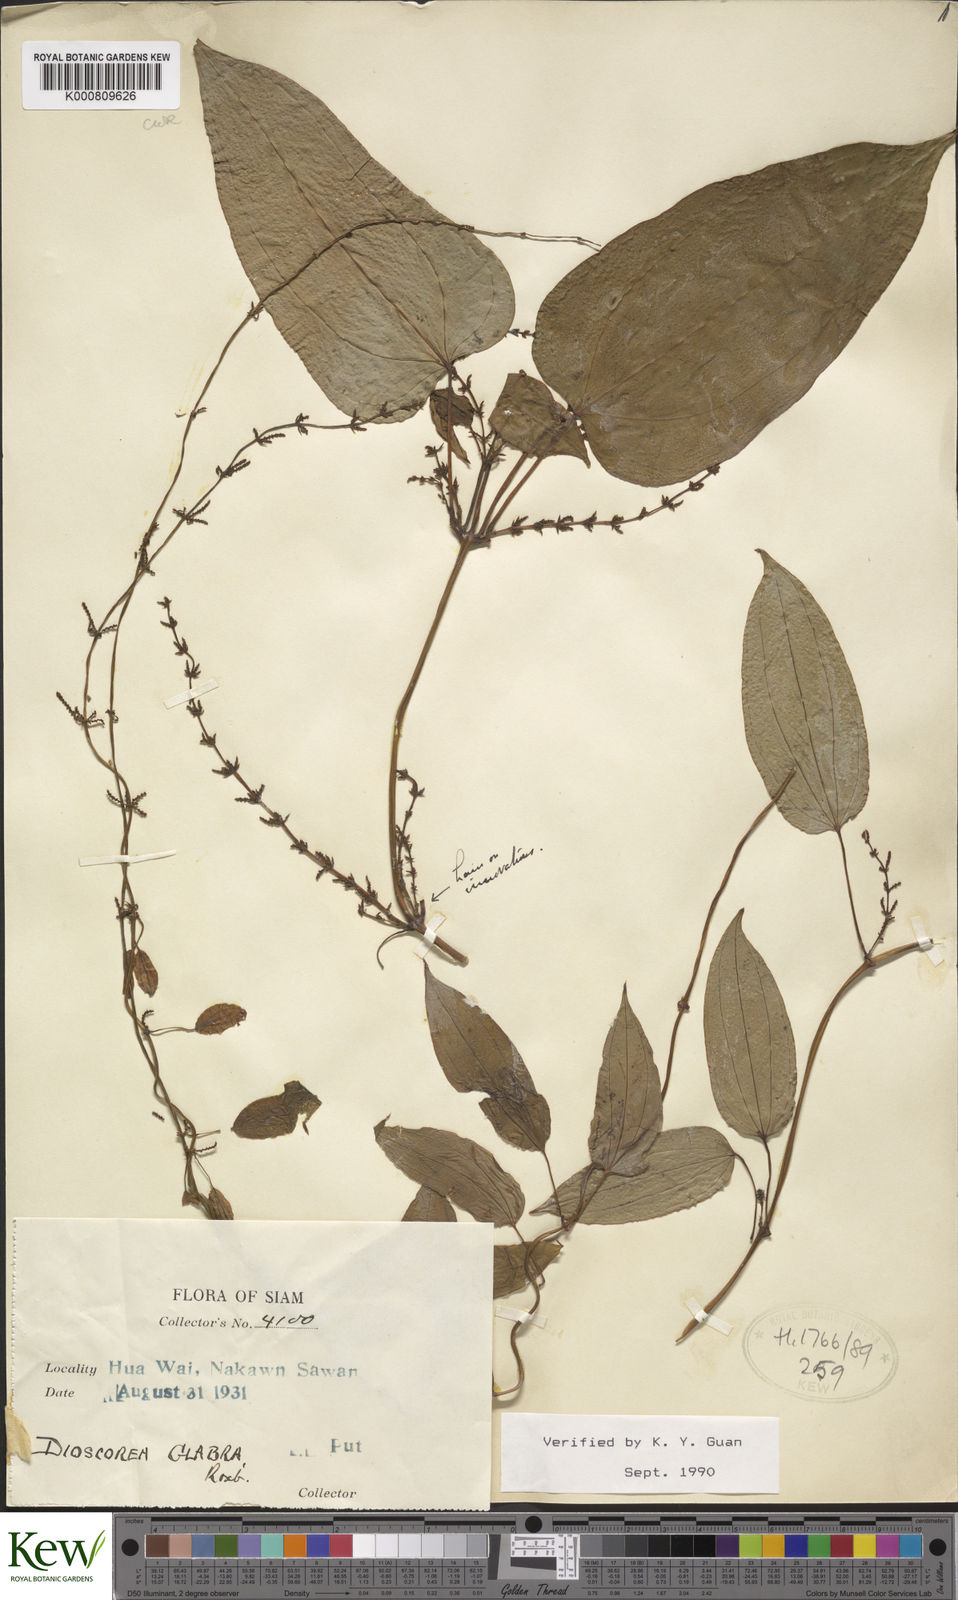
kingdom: Plantae
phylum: Tracheophyta
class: Liliopsida
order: Dioscoreales
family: Dioscoreaceae
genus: Dioscorea
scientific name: Dioscorea glabra
